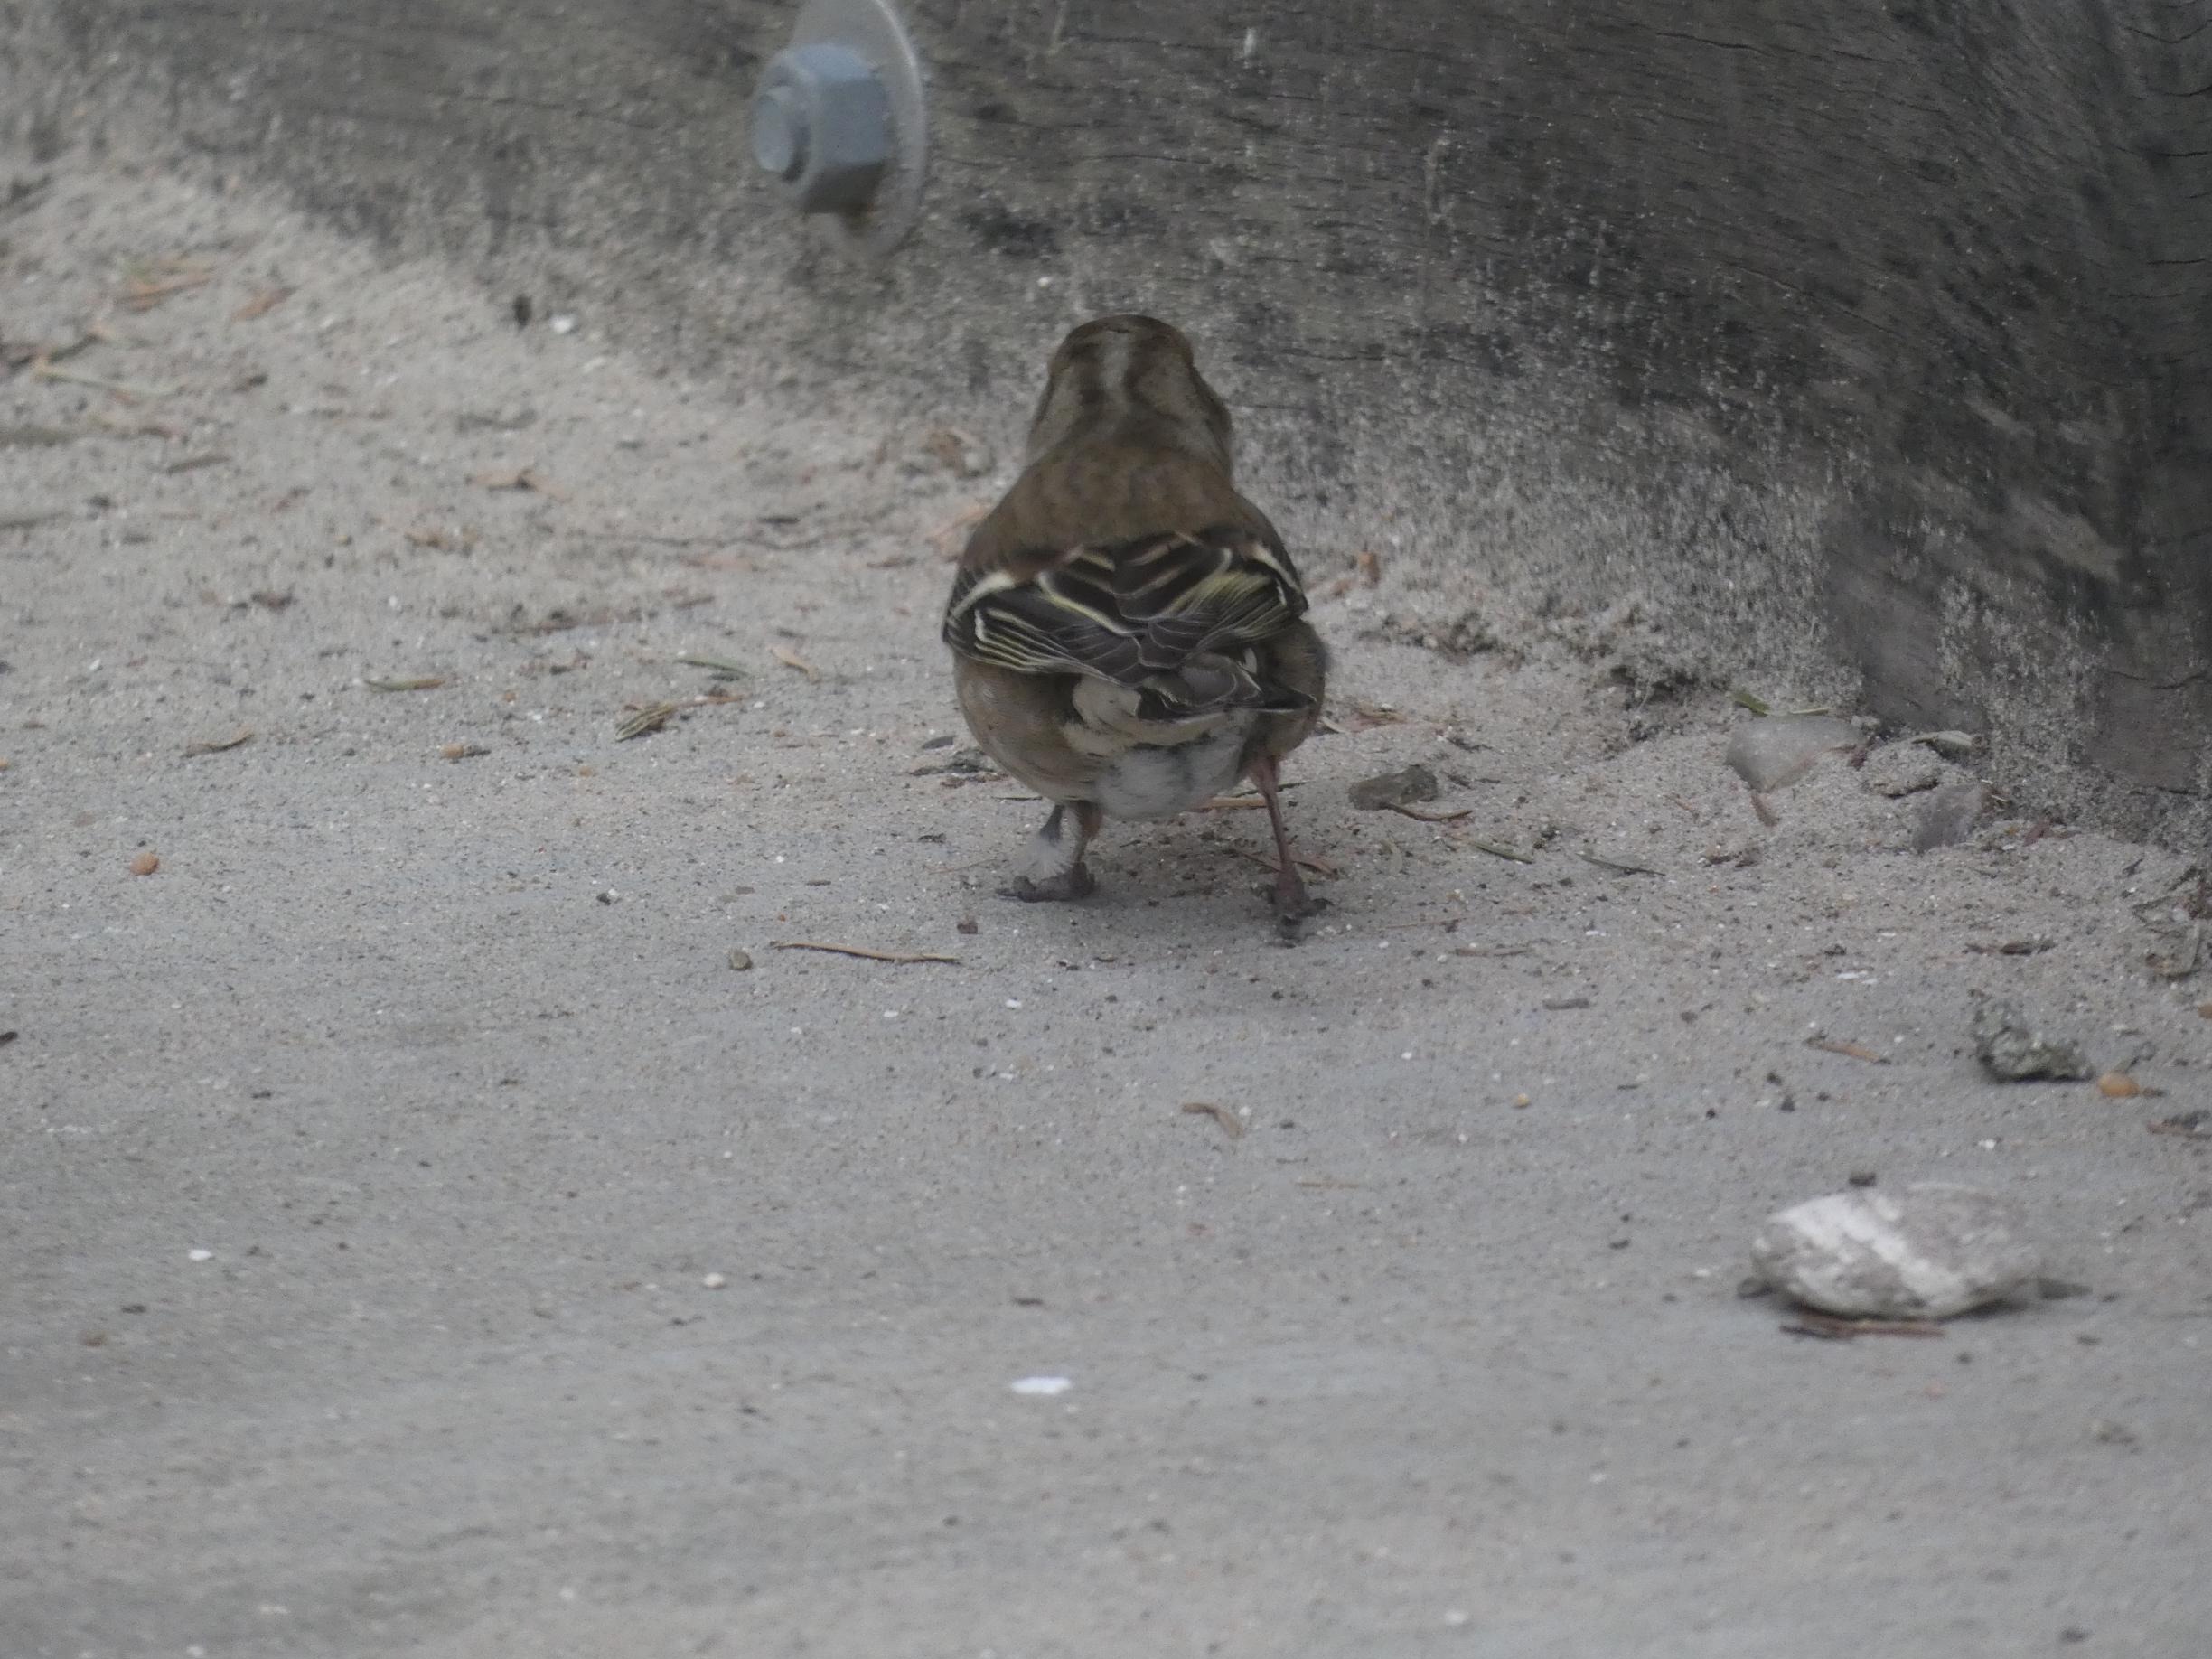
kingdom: Animalia
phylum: Chordata
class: Aves
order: Passeriformes
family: Fringillidae
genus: Fringilla
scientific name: Fringilla coelebs
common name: Bogfinke
